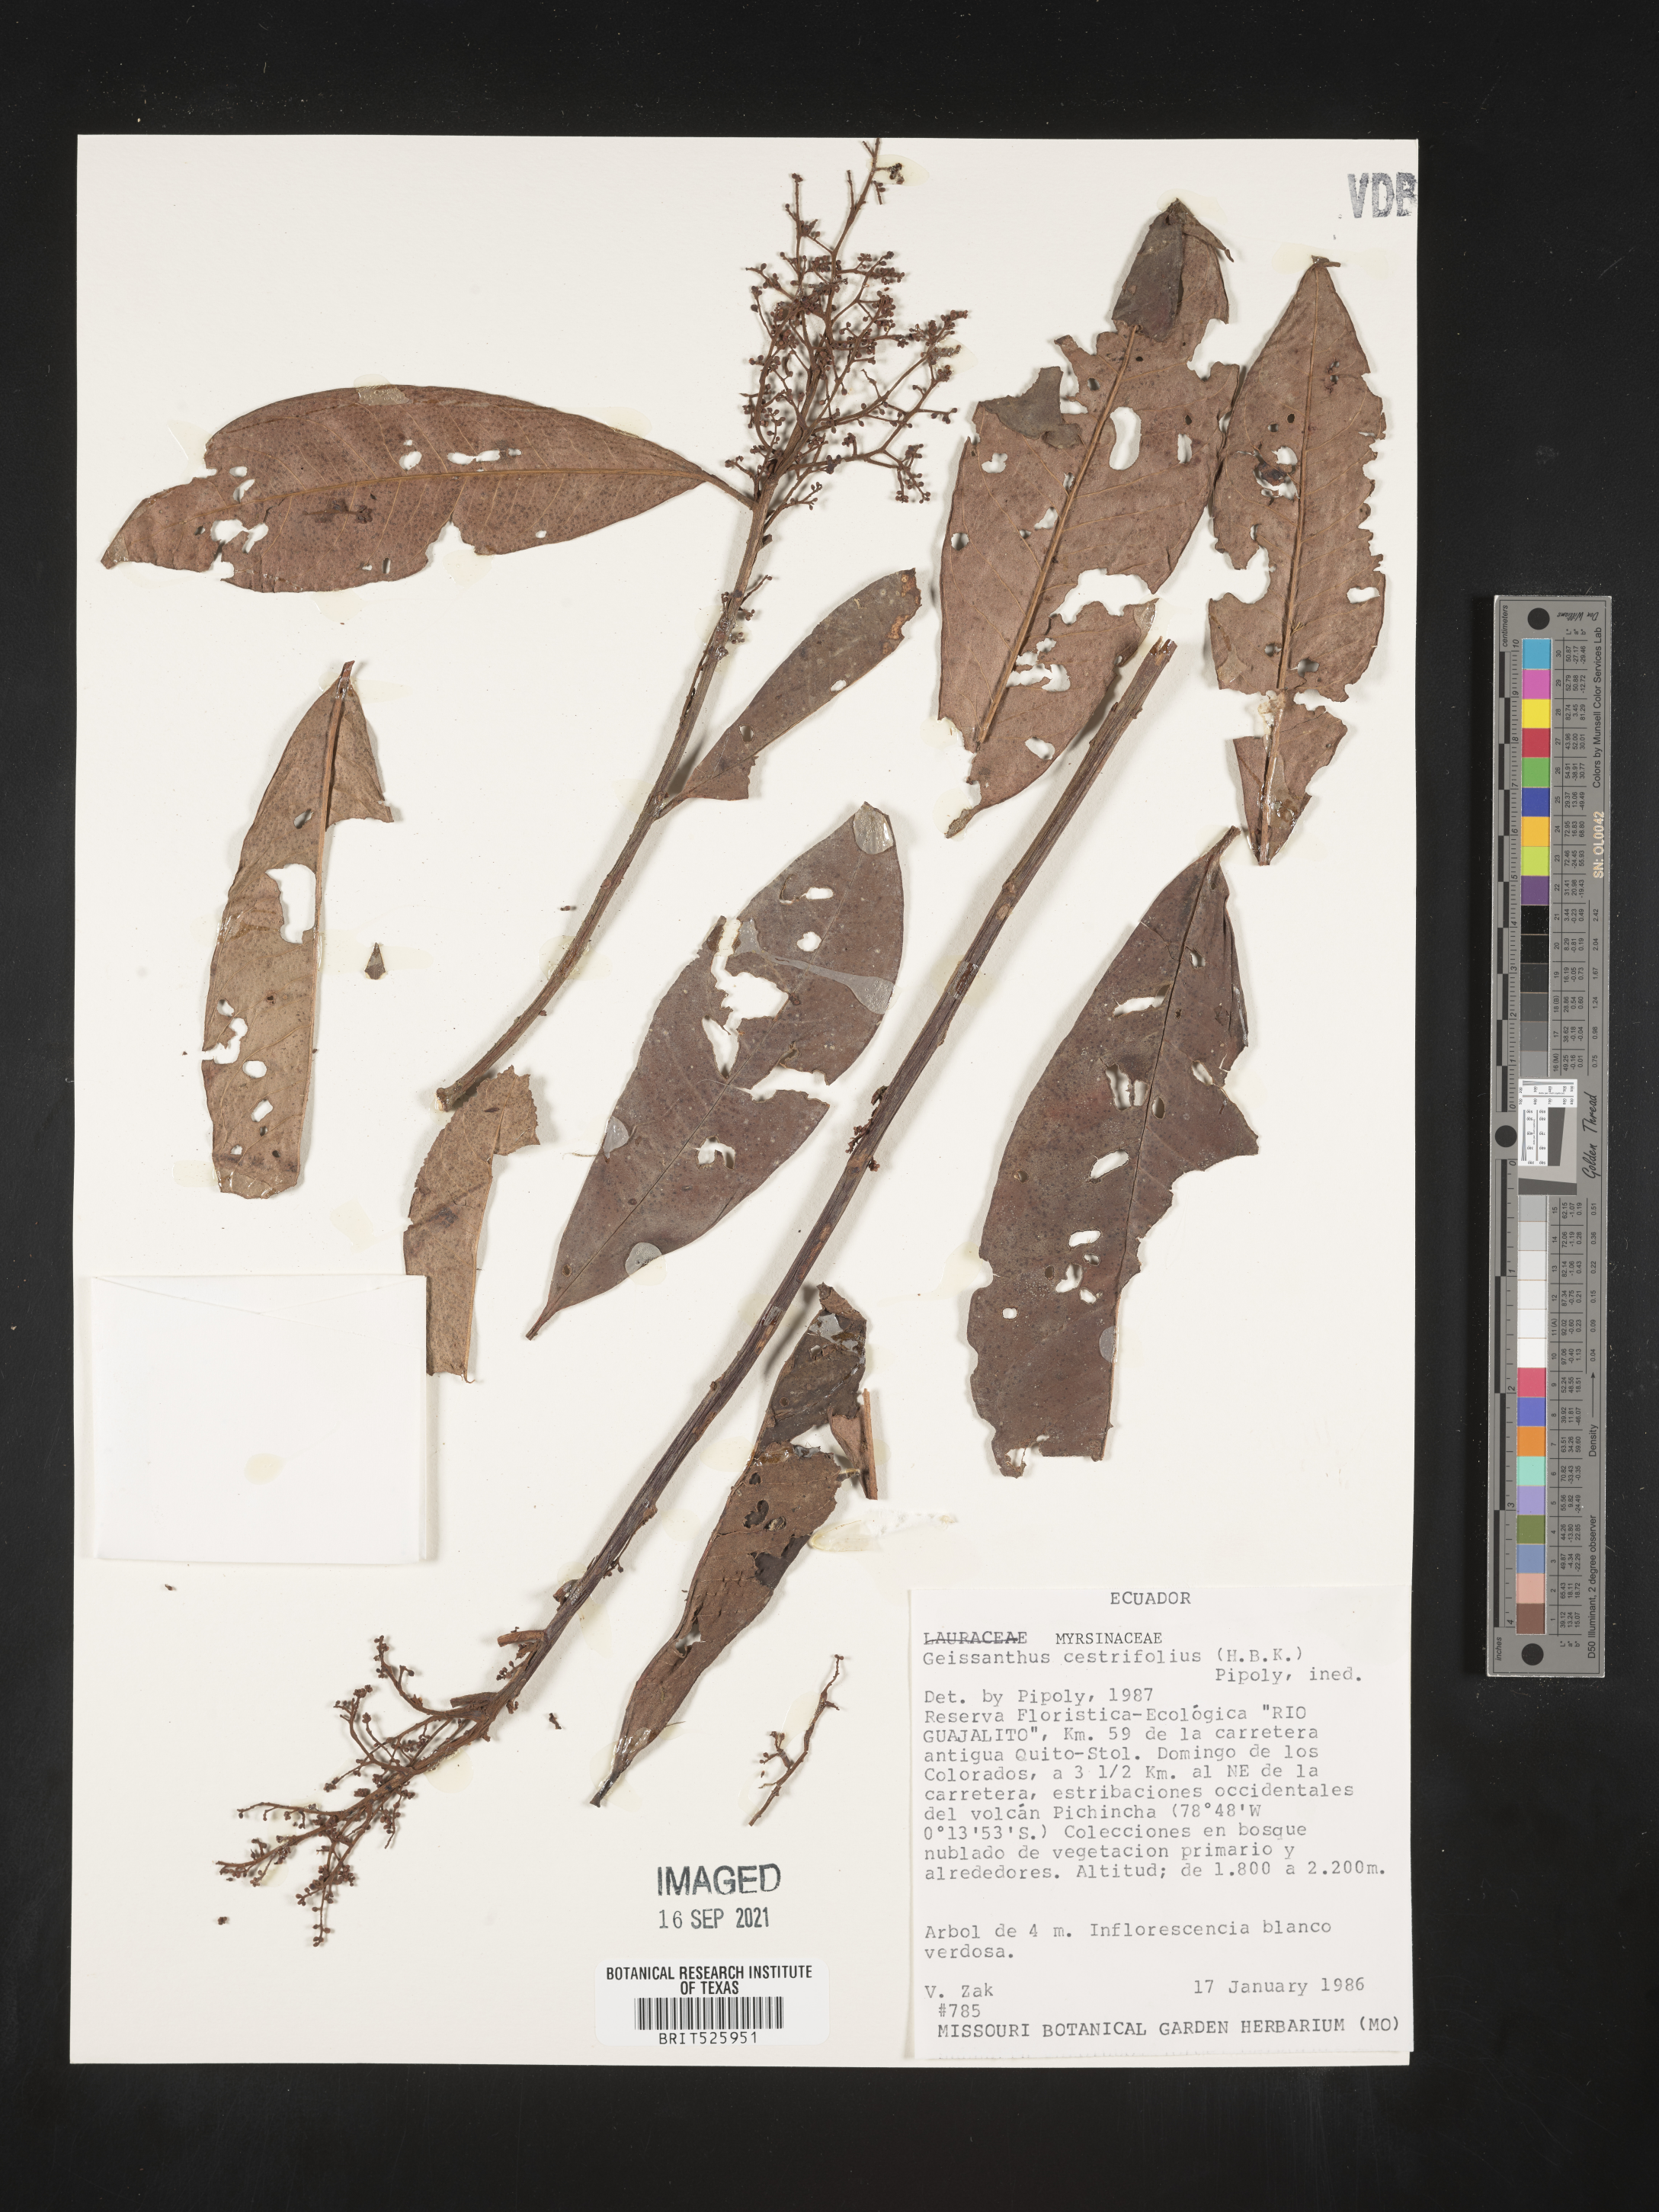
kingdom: Plantae
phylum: Tracheophyta
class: Magnoliopsida
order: Ericales
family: Primulaceae
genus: Geissanthus
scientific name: Geissanthus
